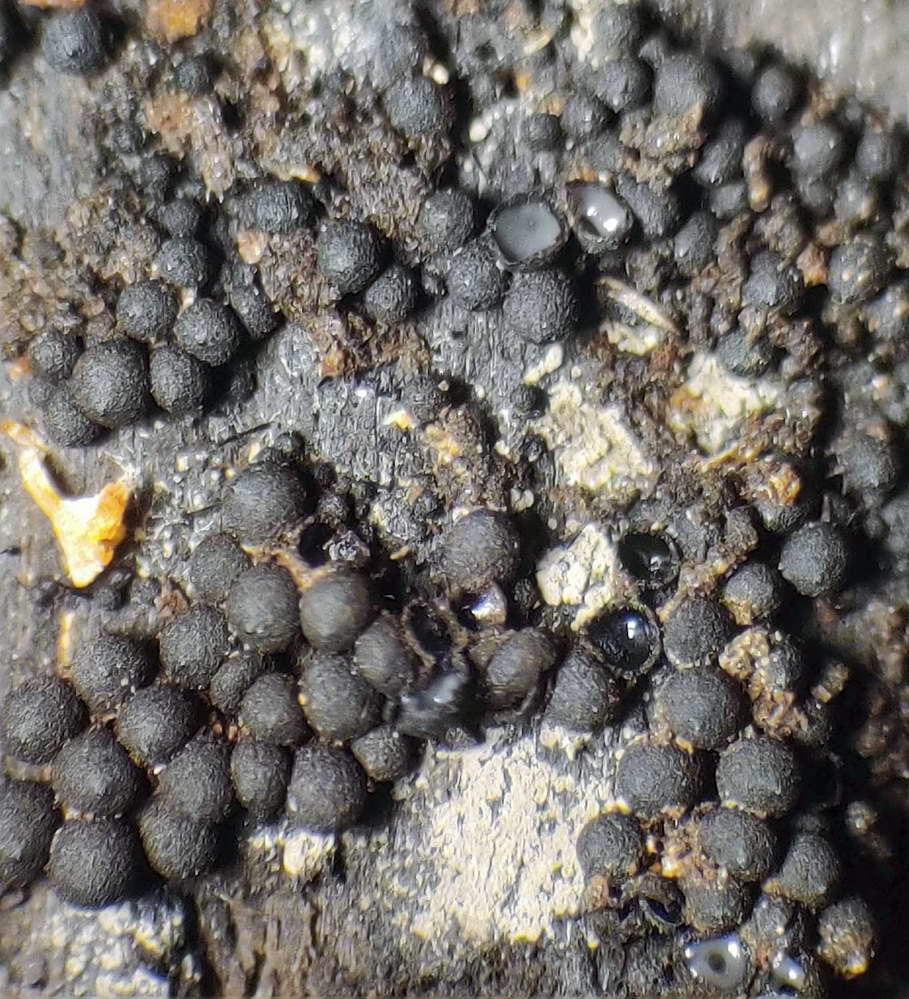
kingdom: Fungi
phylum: Ascomycota
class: Sordariomycetes
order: Sordariales
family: Helminthosphaeriaceae
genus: Ruzenia
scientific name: Ruzenia spermoides
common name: glat børstekerne
